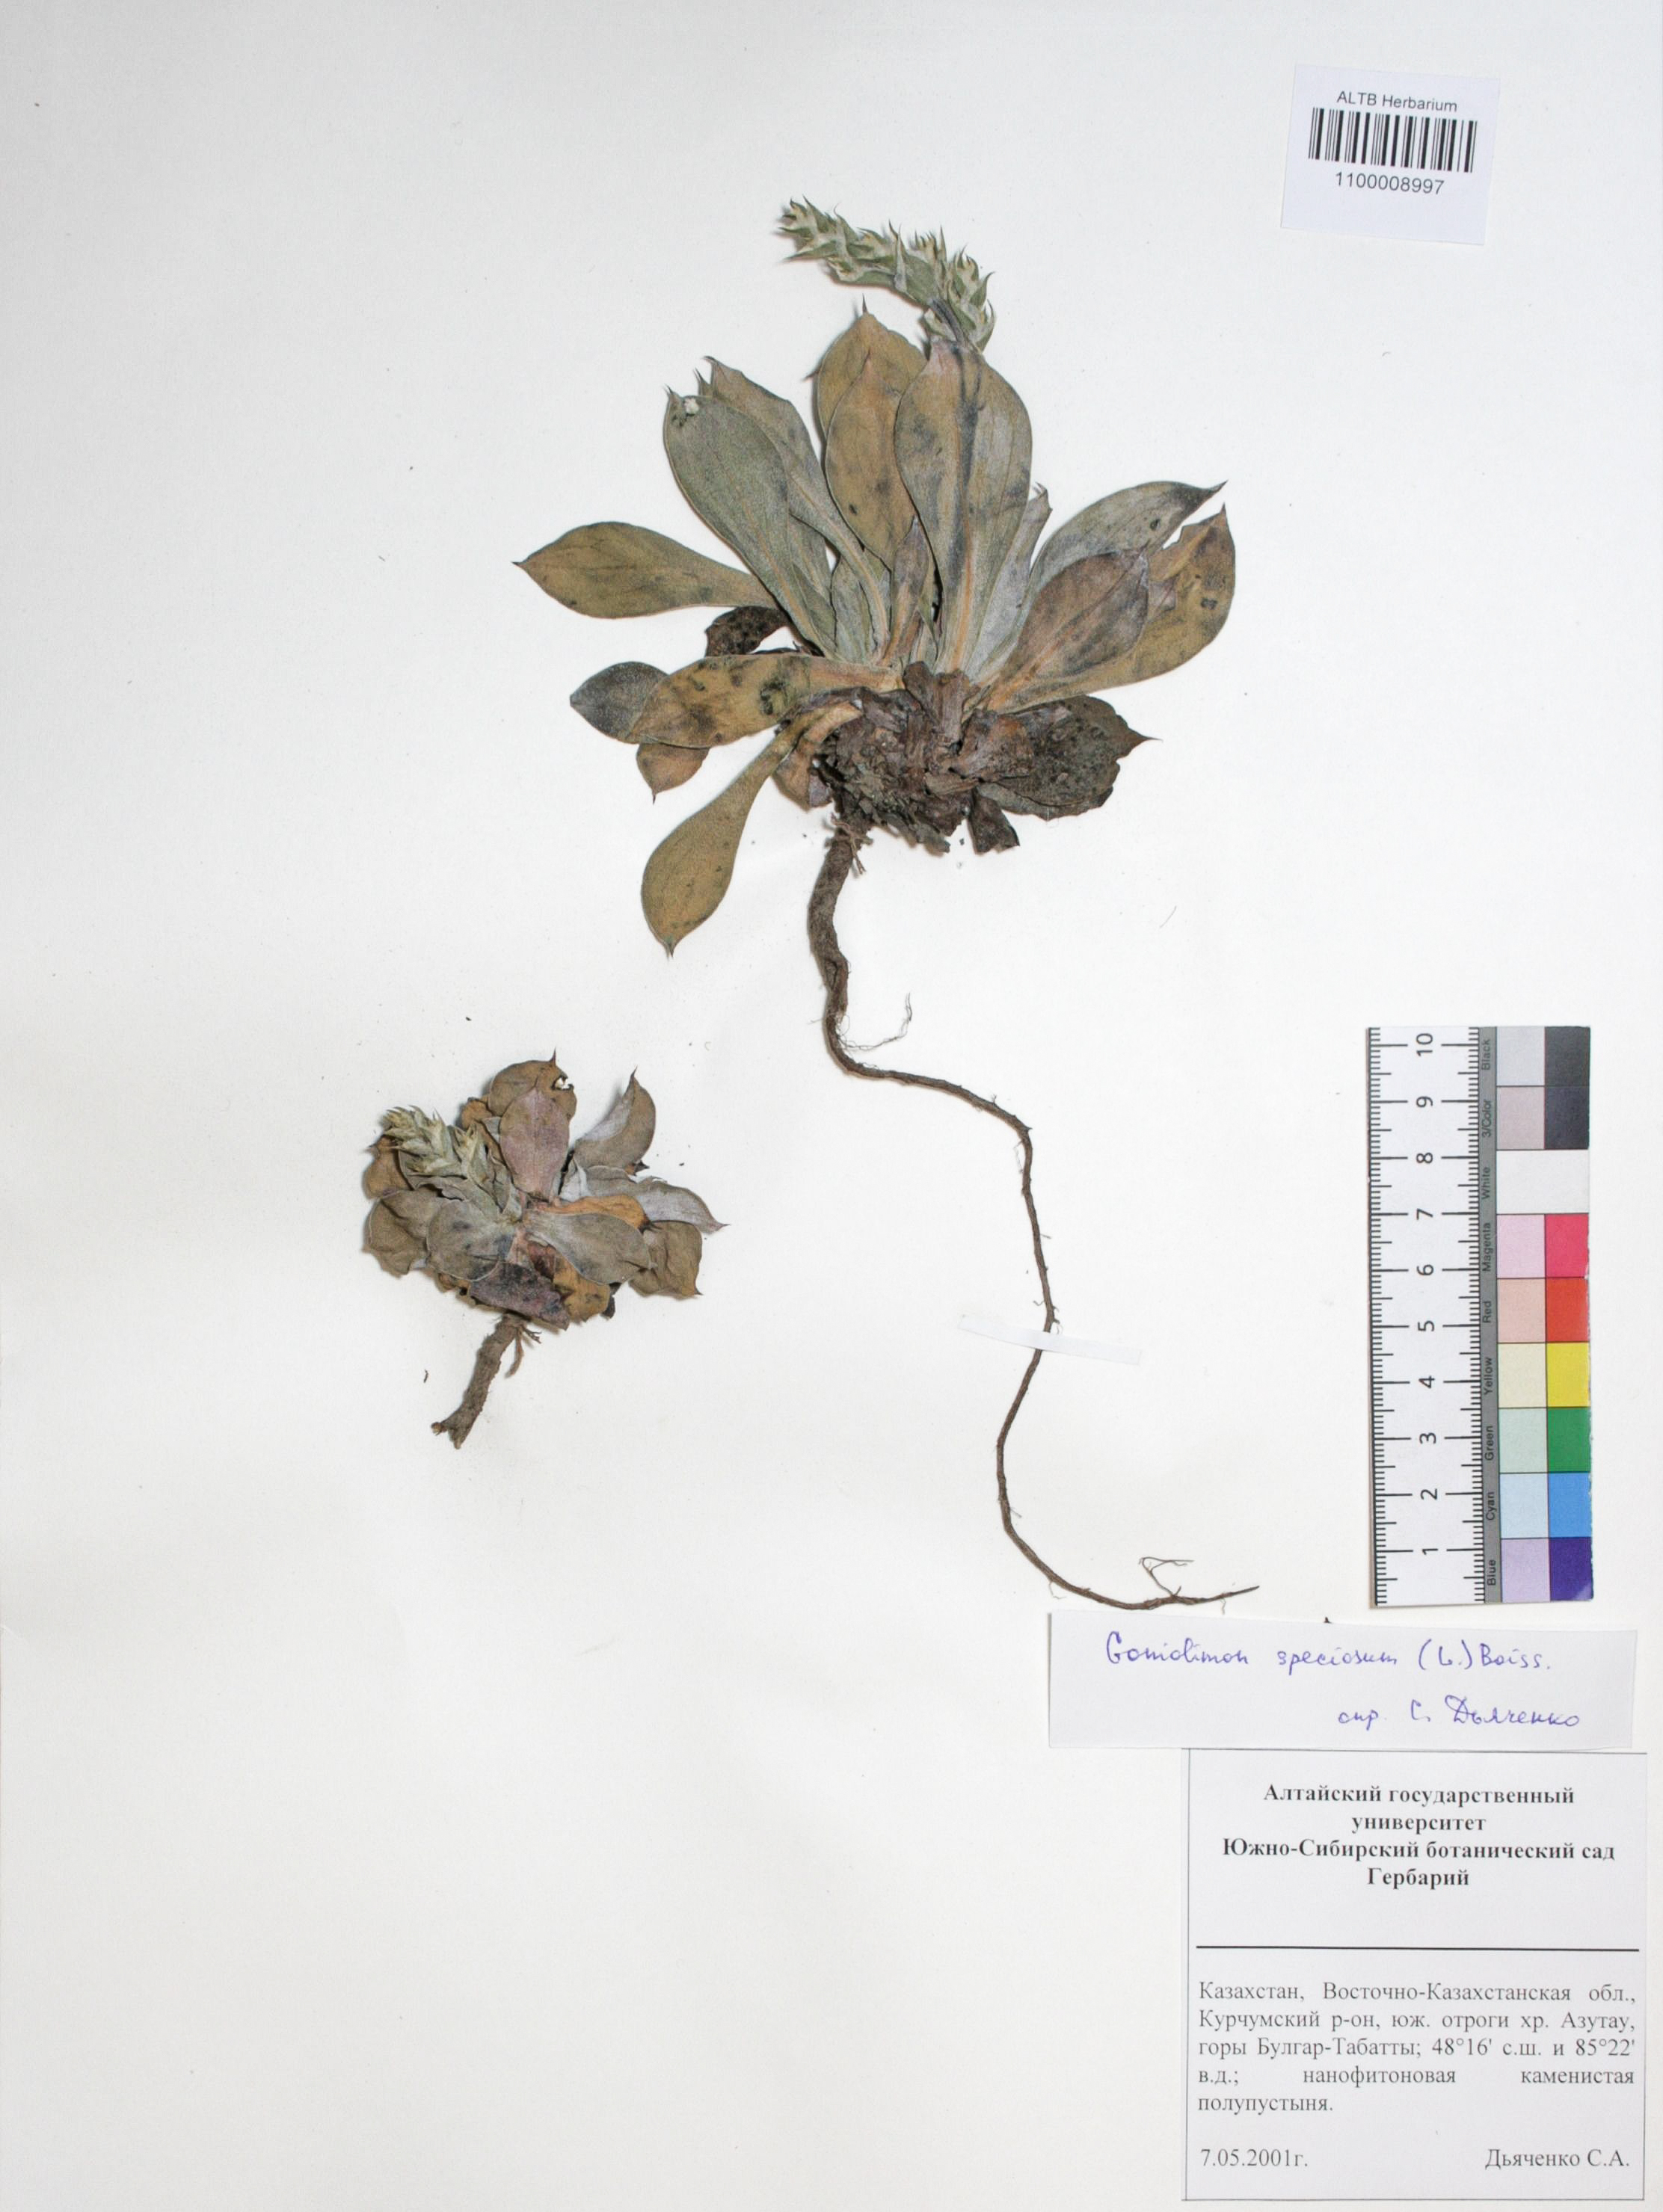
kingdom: Plantae
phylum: Tracheophyta
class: Magnoliopsida
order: Caryophyllales
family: Plumbaginaceae
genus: Goniolimon
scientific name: Goniolimon speciosum
